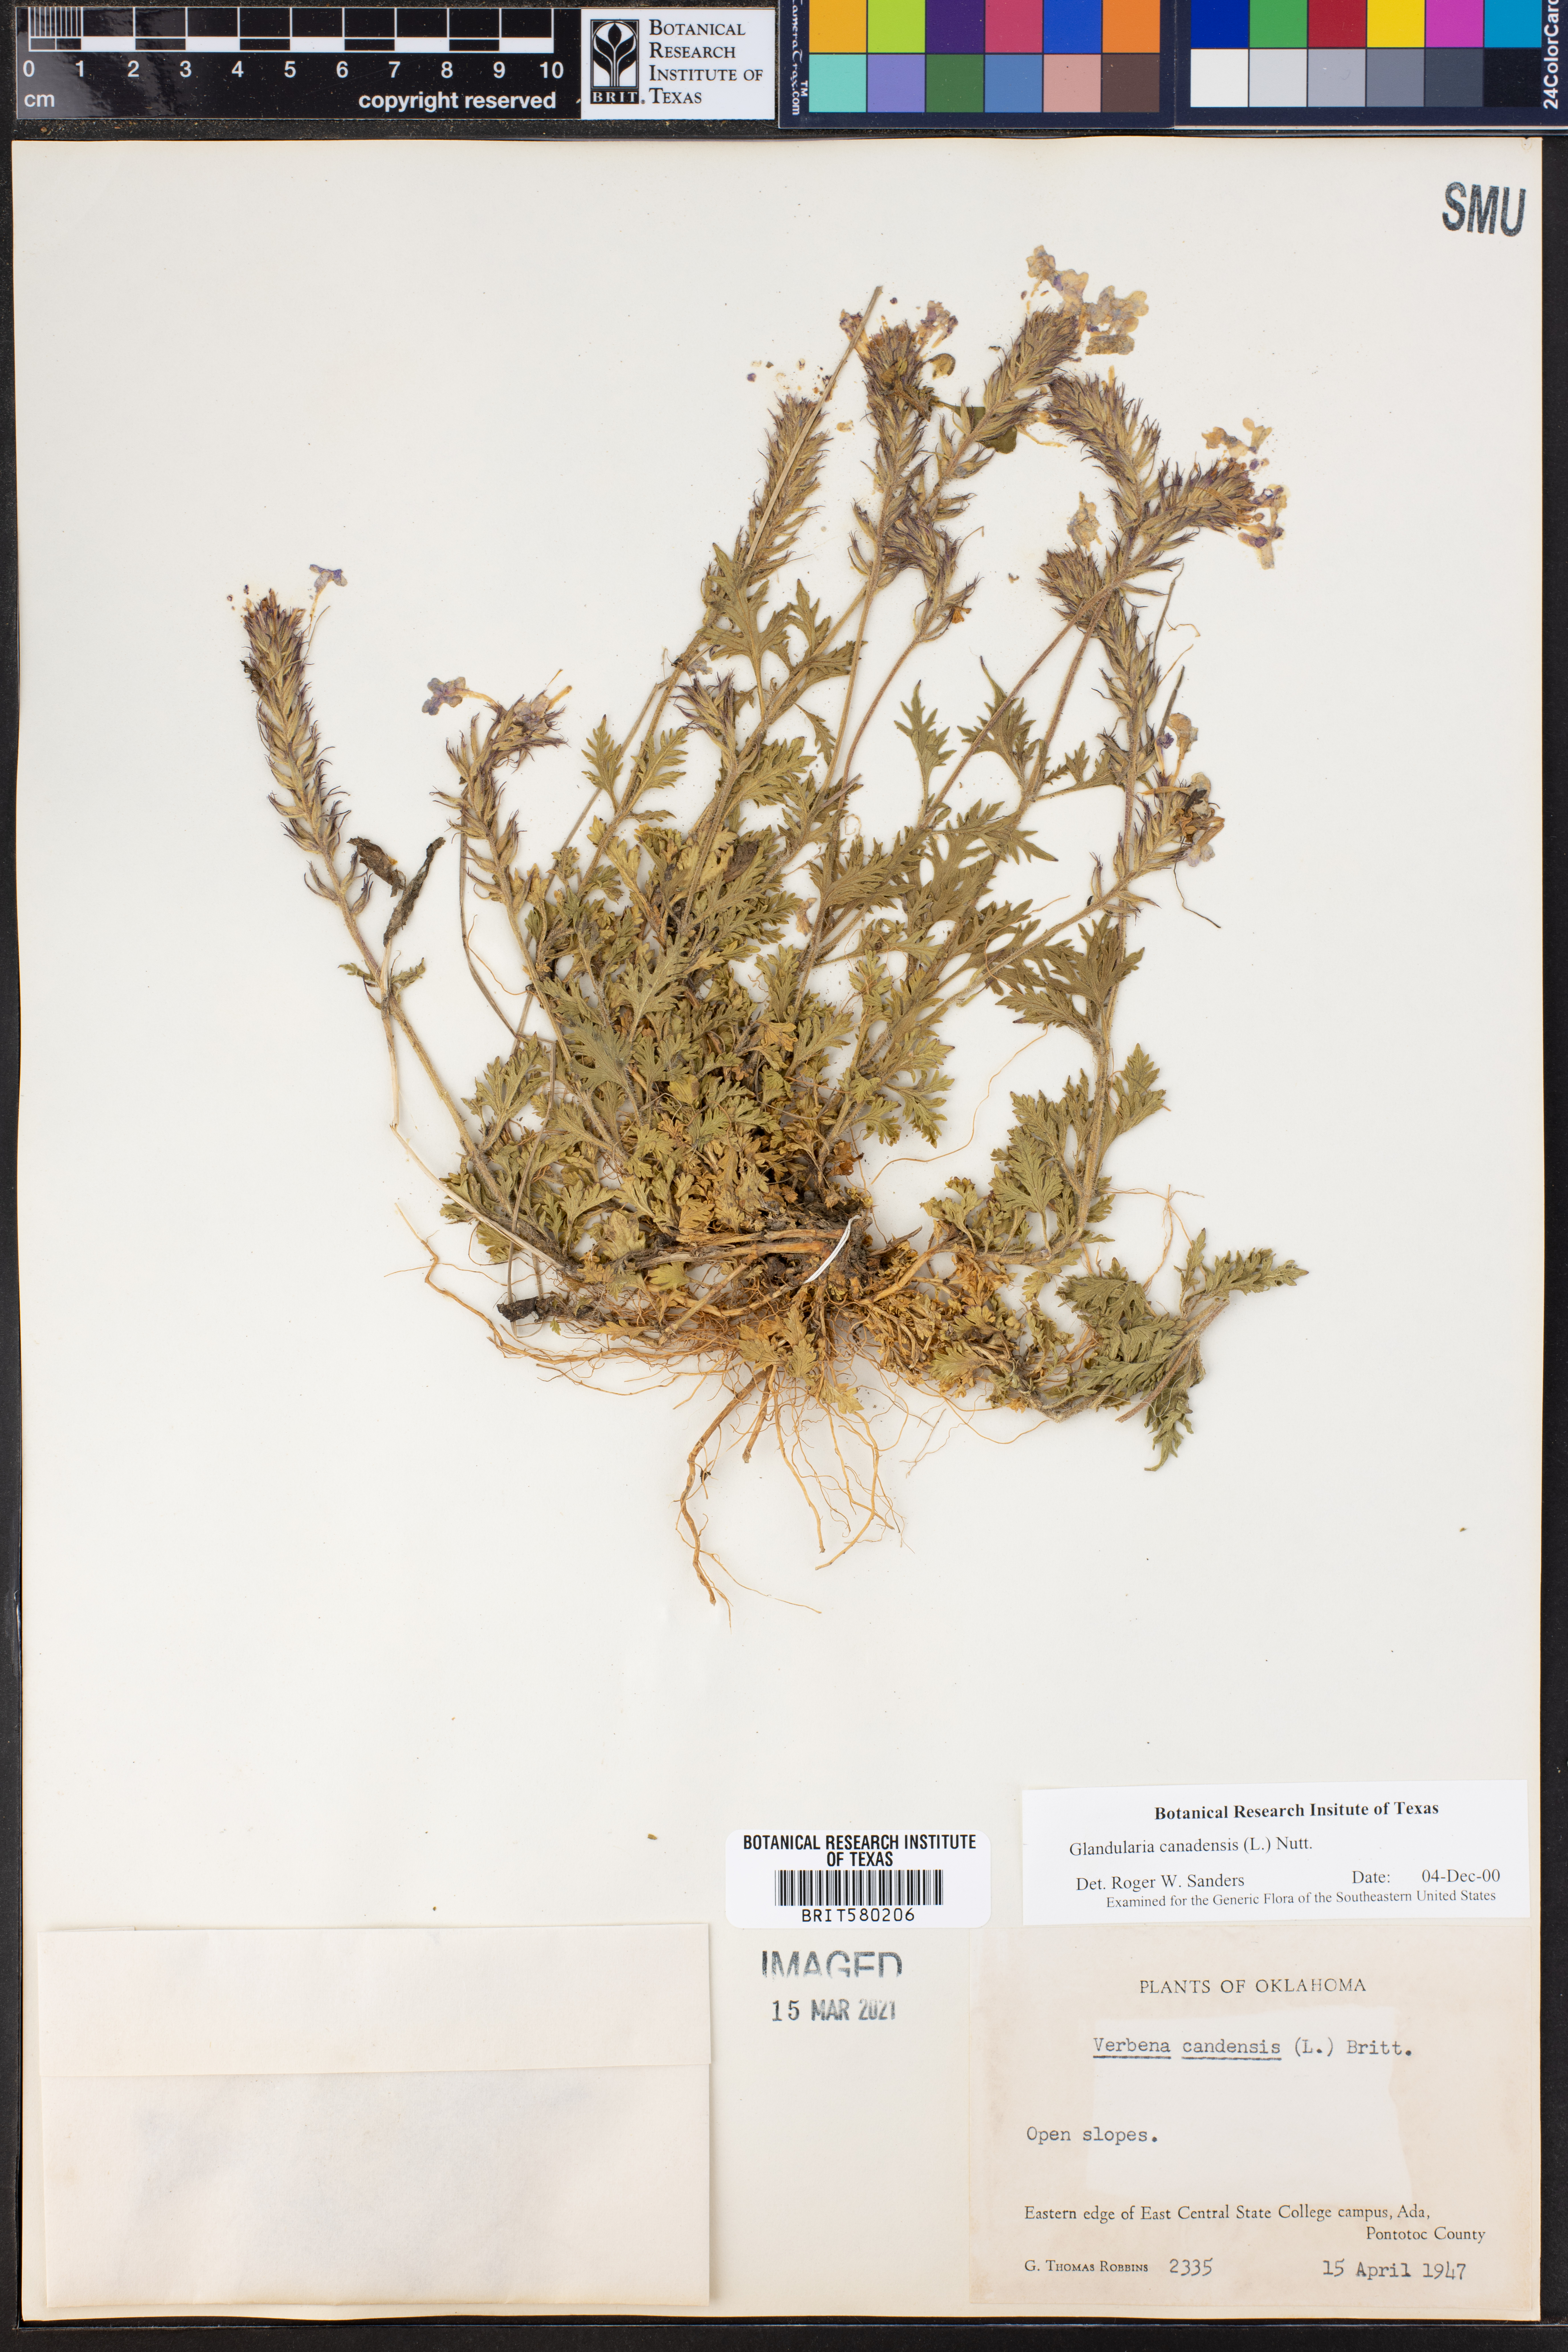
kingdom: Plantae
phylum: Tracheophyta
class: Magnoliopsida
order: Lamiales
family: Verbenaceae
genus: Verbena
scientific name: Verbena canadensis
